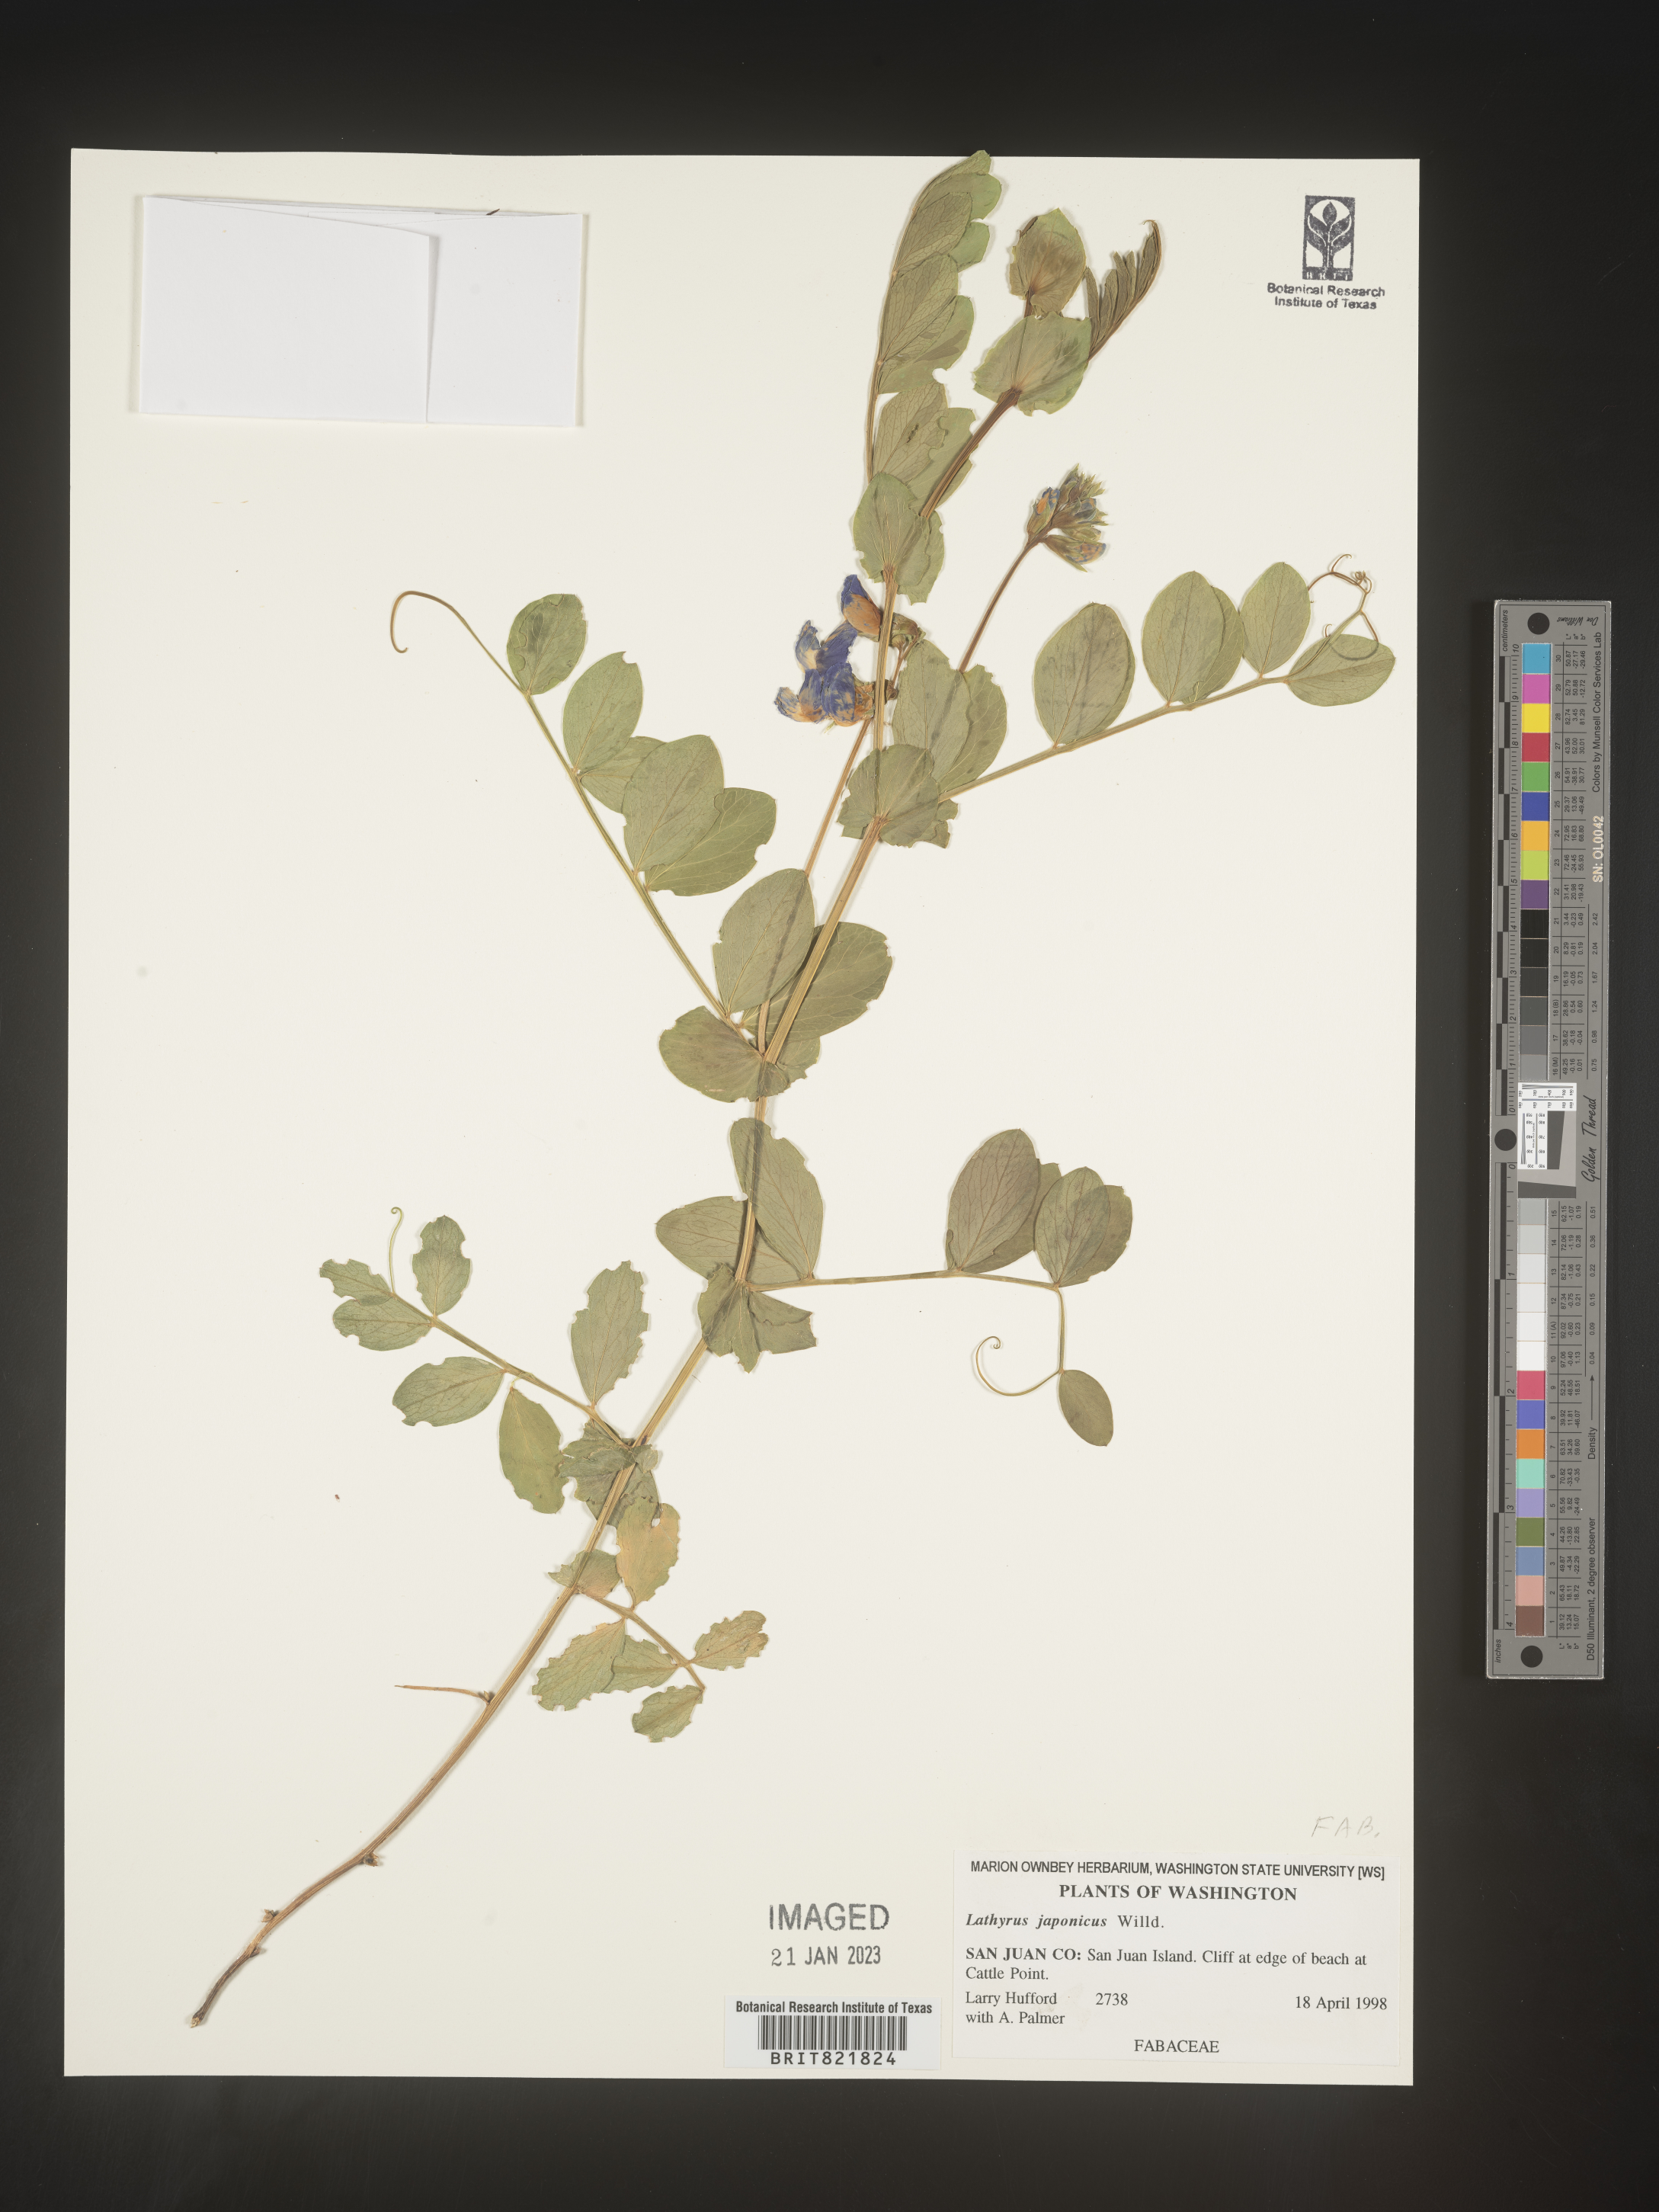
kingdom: Plantae
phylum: Tracheophyta
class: Magnoliopsida
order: Fabales
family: Fabaceae
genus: Lathyrus
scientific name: Lathyrus japonicus
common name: Sea pea
